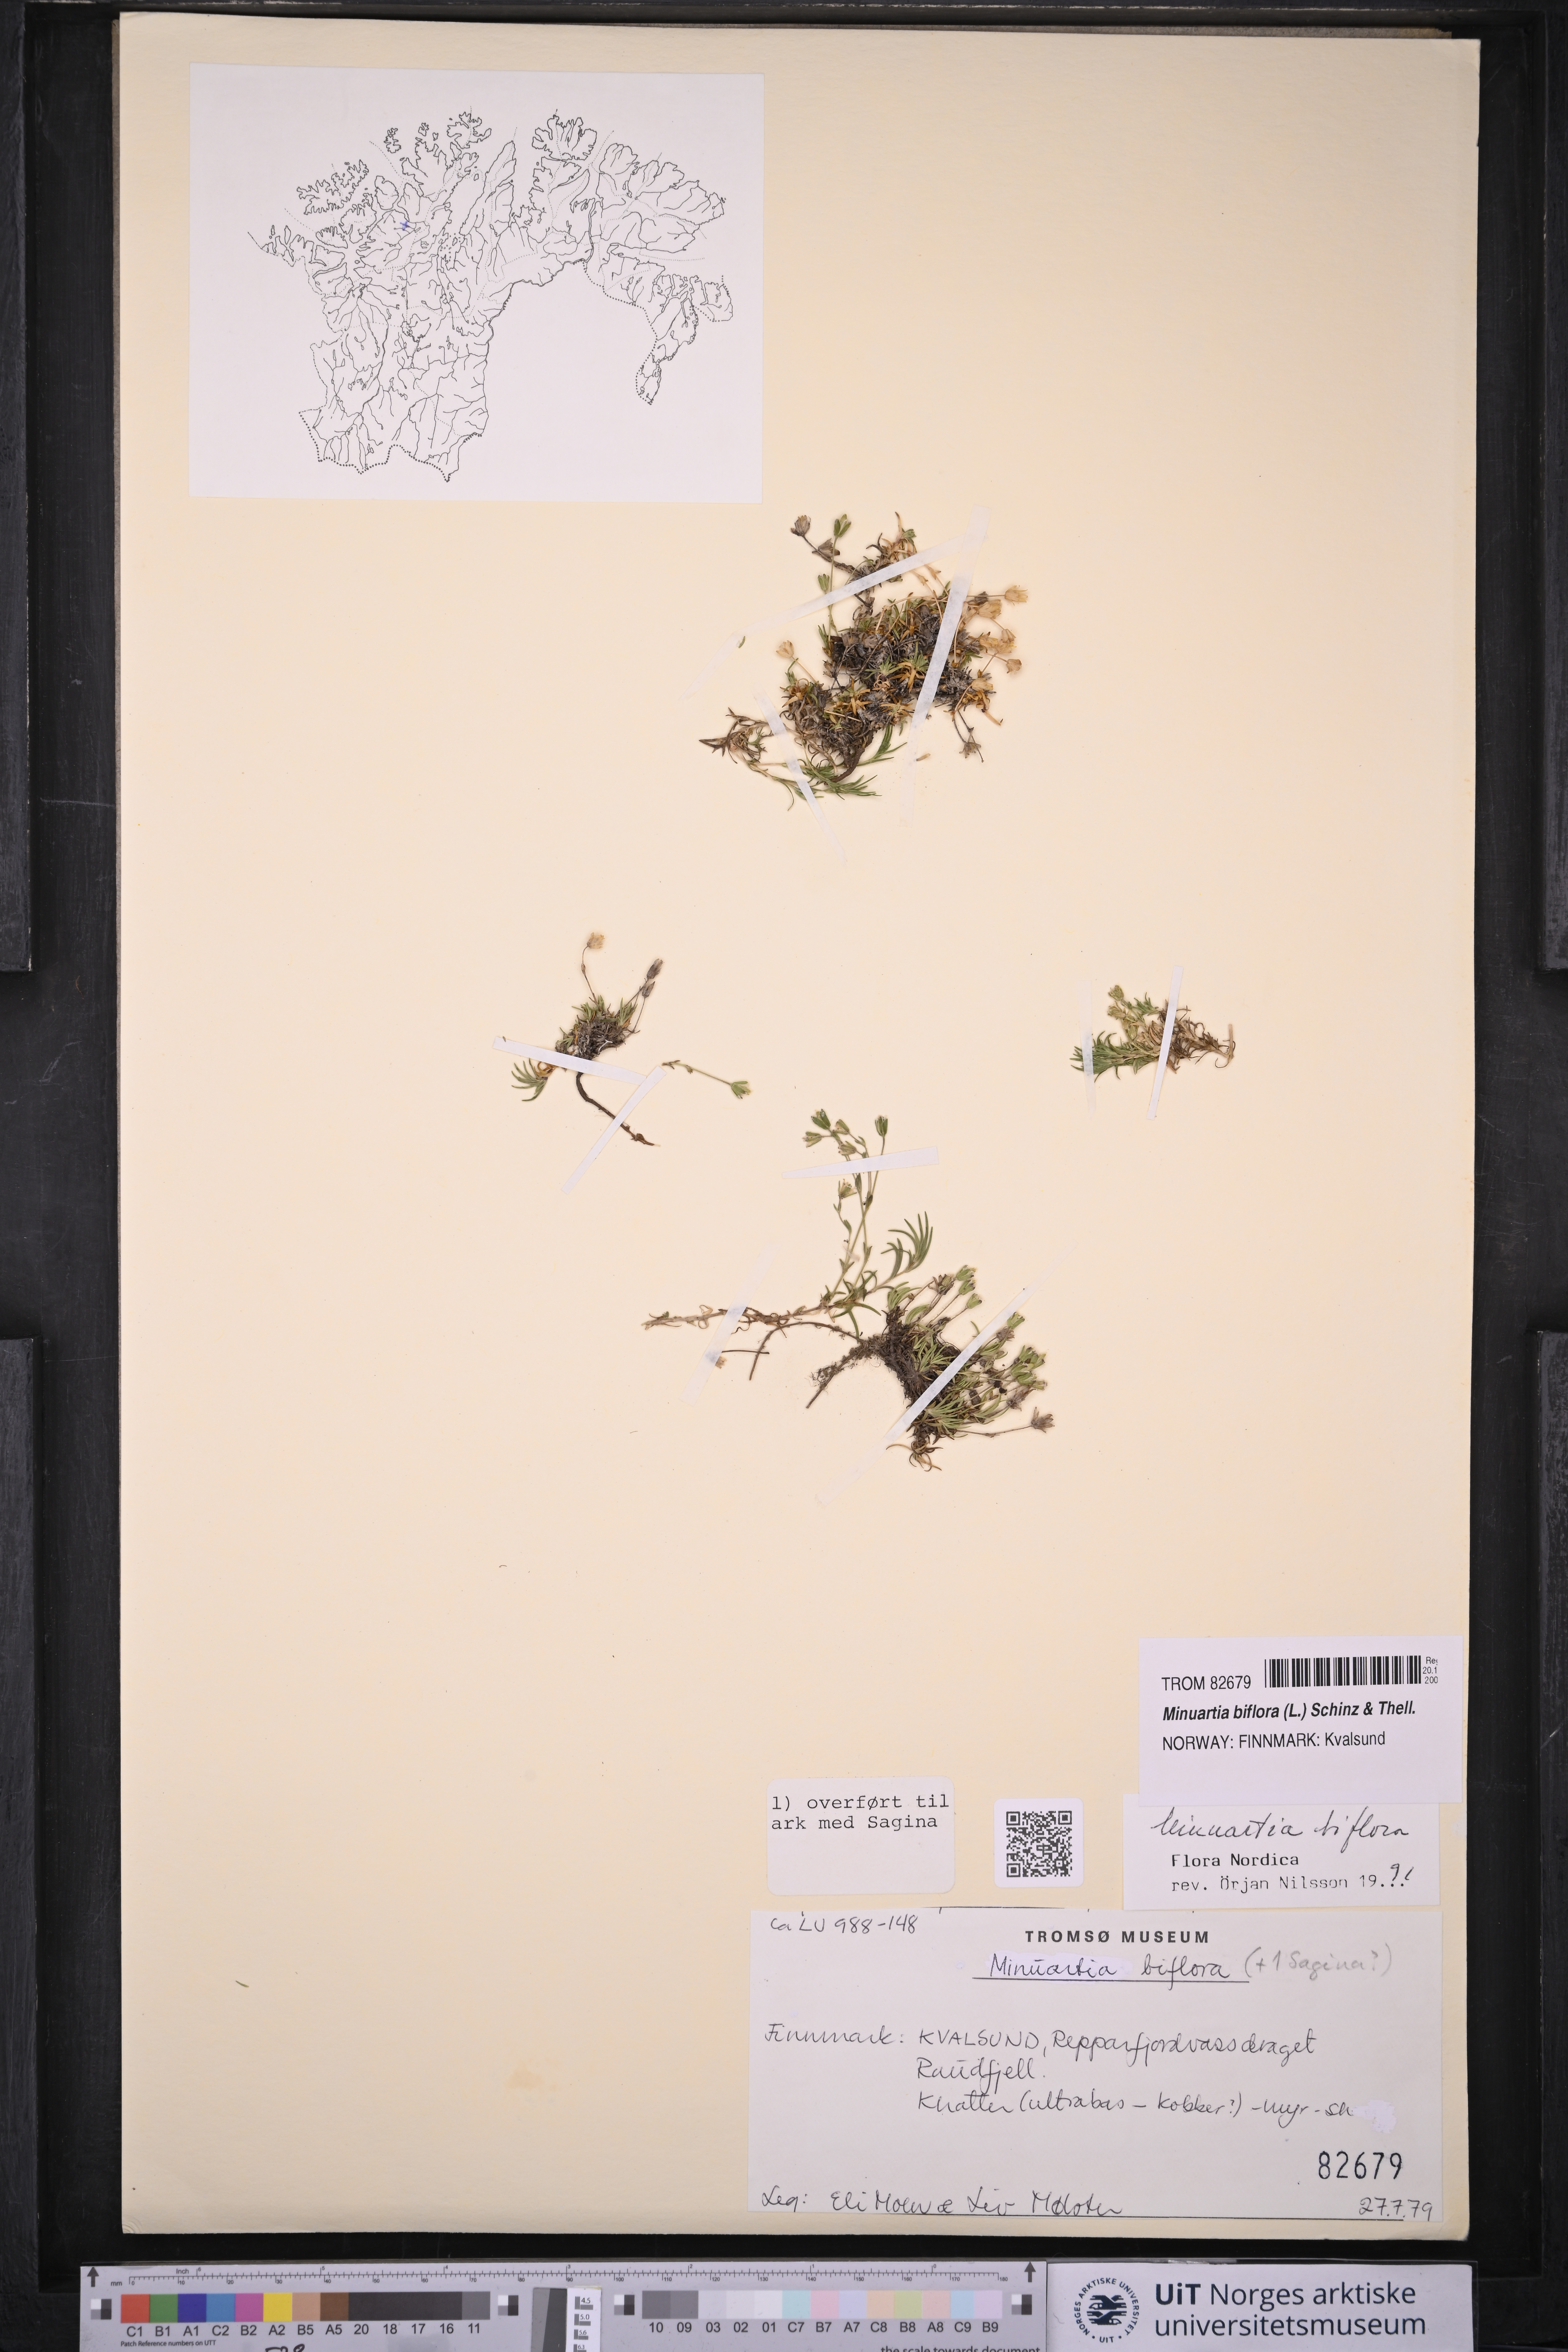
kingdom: Plantae
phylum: Tracheophyta
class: Magnoliopsida
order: Caryophyllales
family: Caryophyllaceae
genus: Cherleria
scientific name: Cherleria biflora
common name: Mountain sandwort
